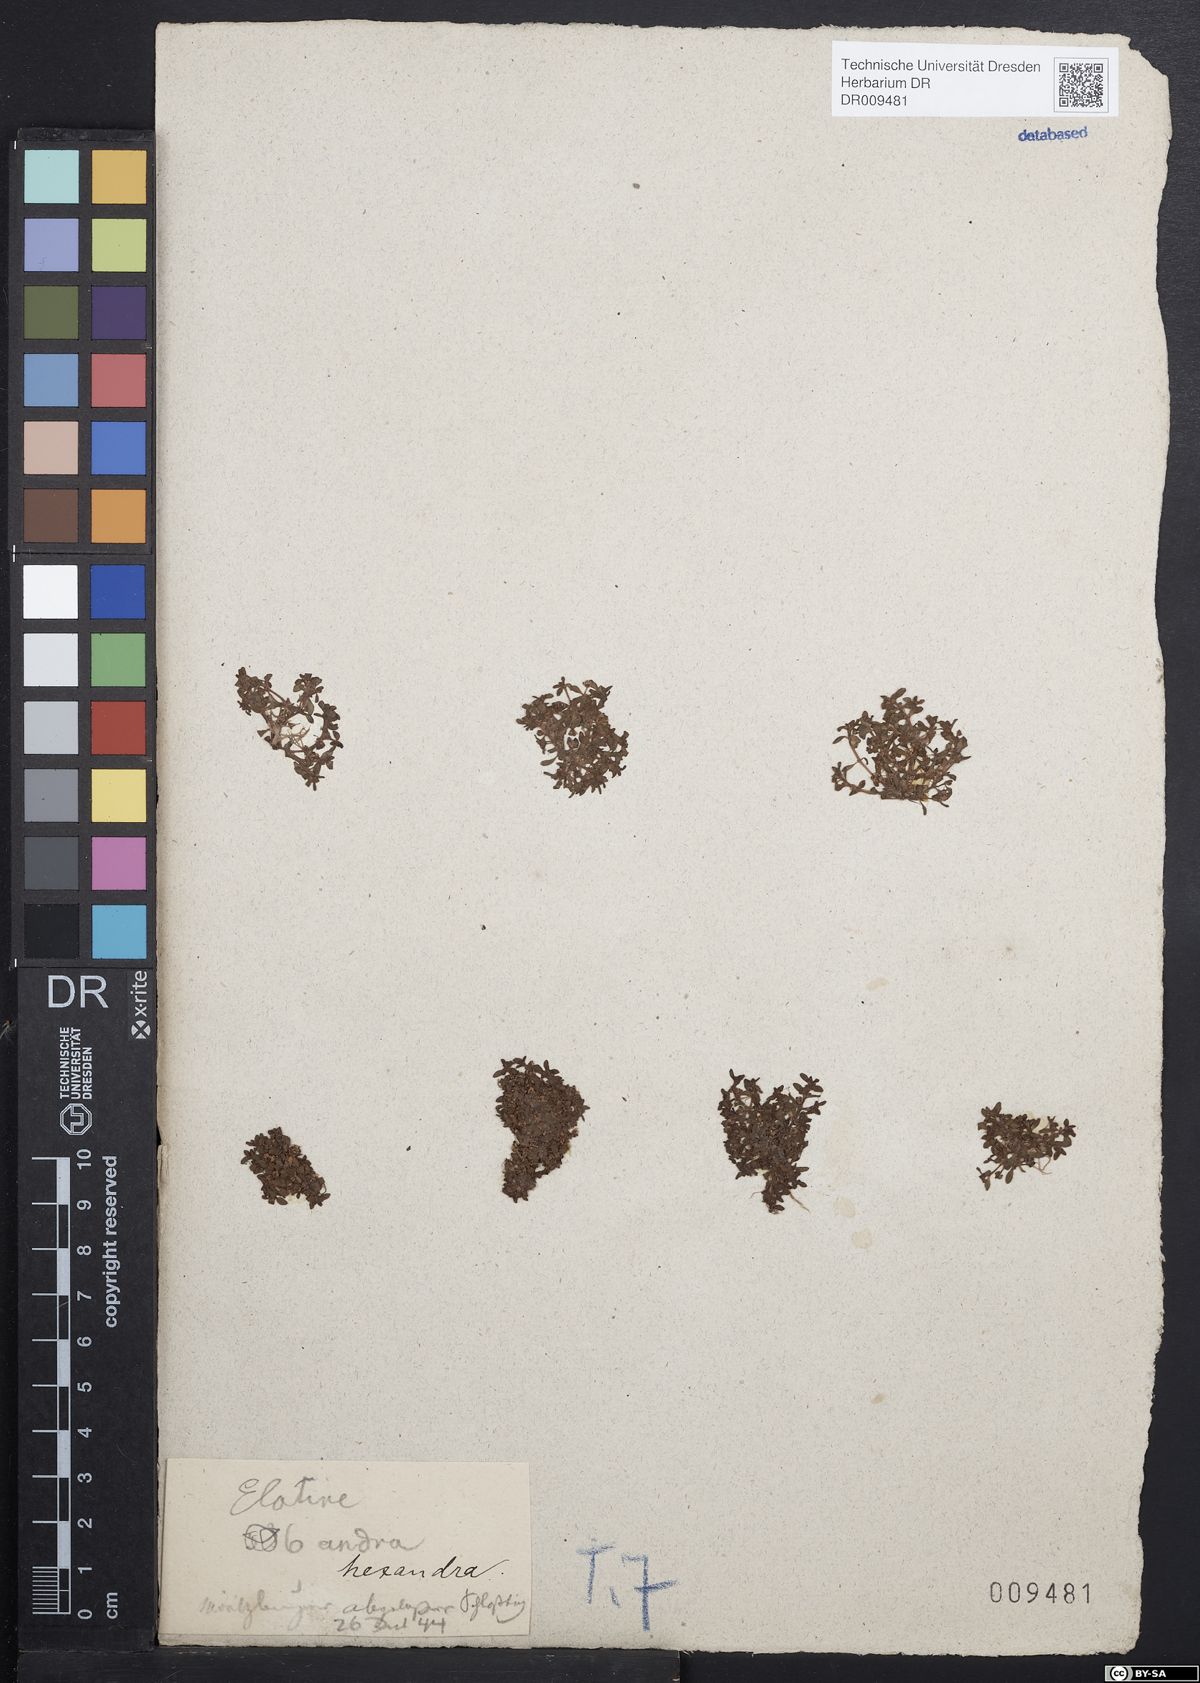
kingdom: Plantae
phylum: Tracheophyta
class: Magnoliopsida
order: Malpighiales
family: Elatinaceae
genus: Elatine
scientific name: Elatine hexandra
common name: Six-stamened waterwort
